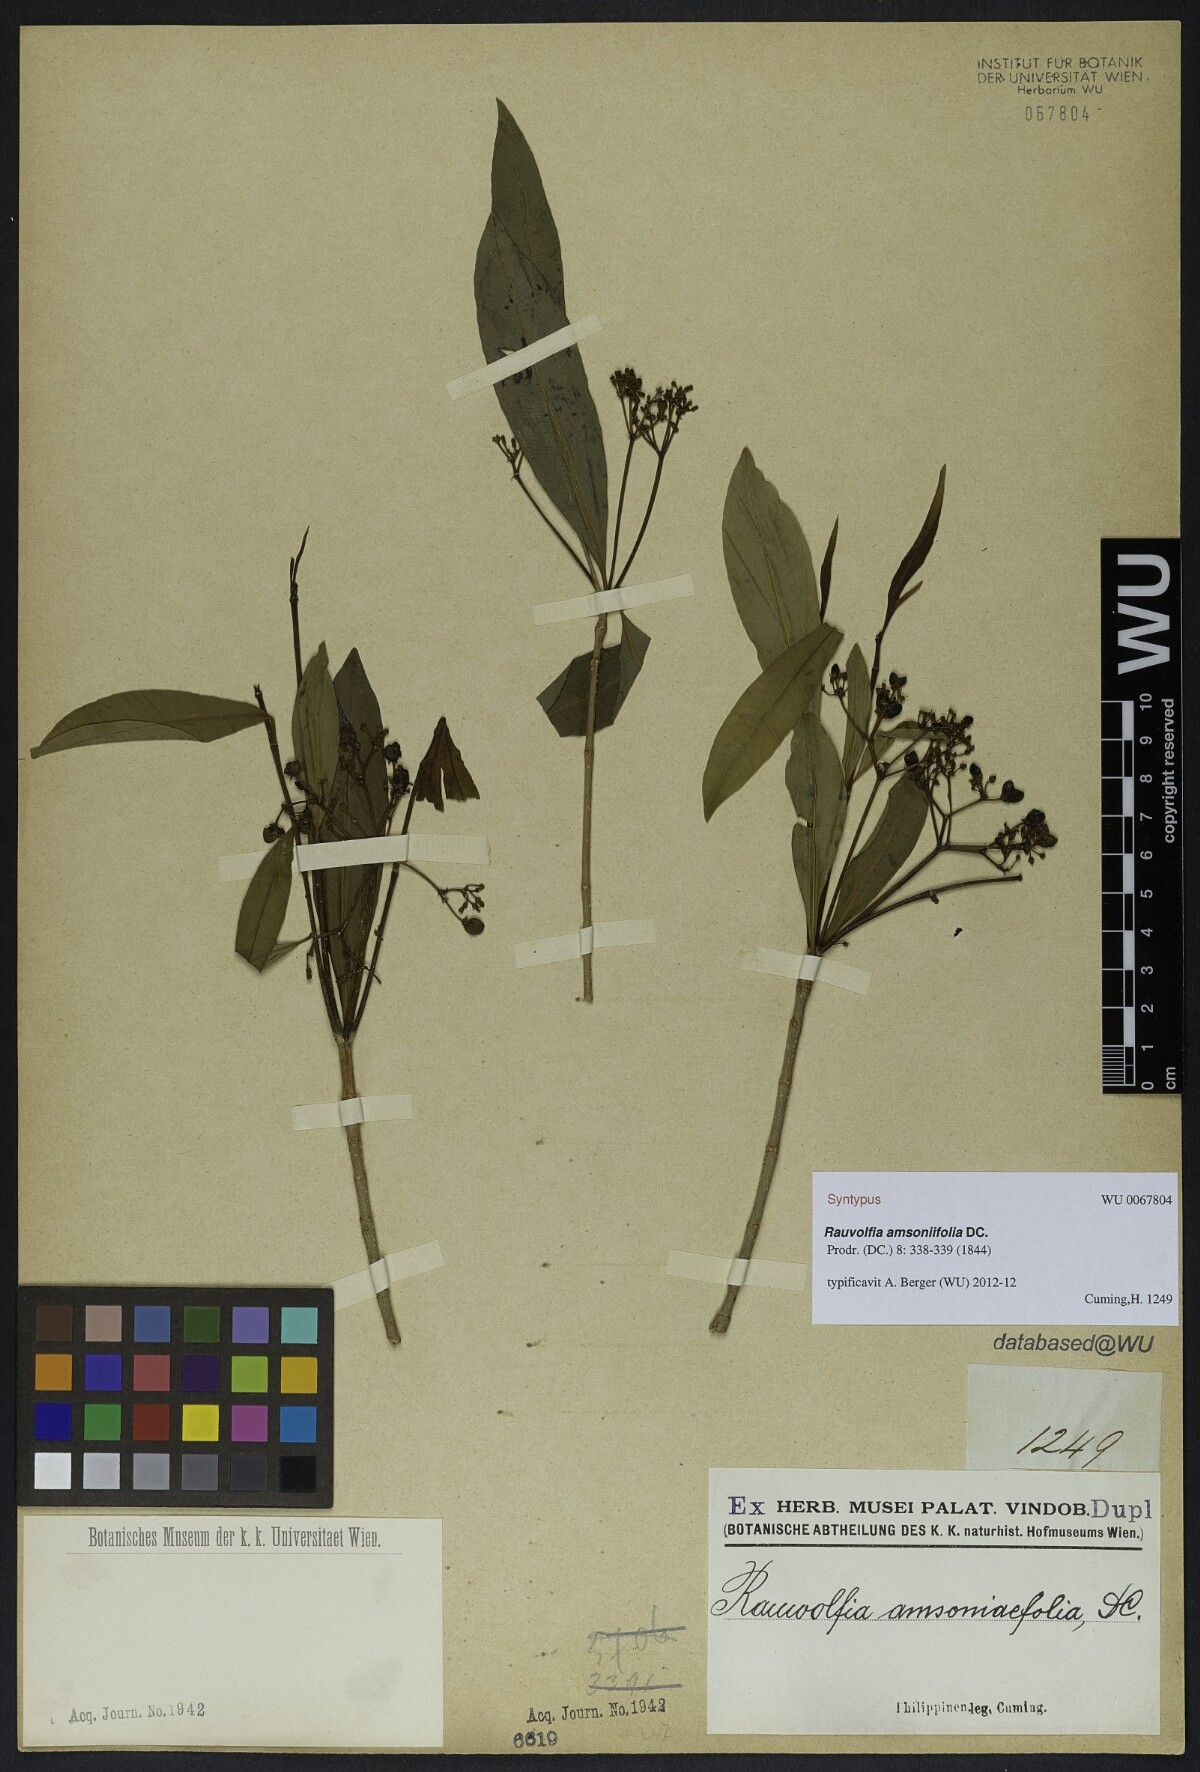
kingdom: Plantae
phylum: Tracheophyta
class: Magnoliopsida
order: Gentianales
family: Apocynaceae
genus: Rauvolfia
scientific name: Rauvolfia amsoniifolia
